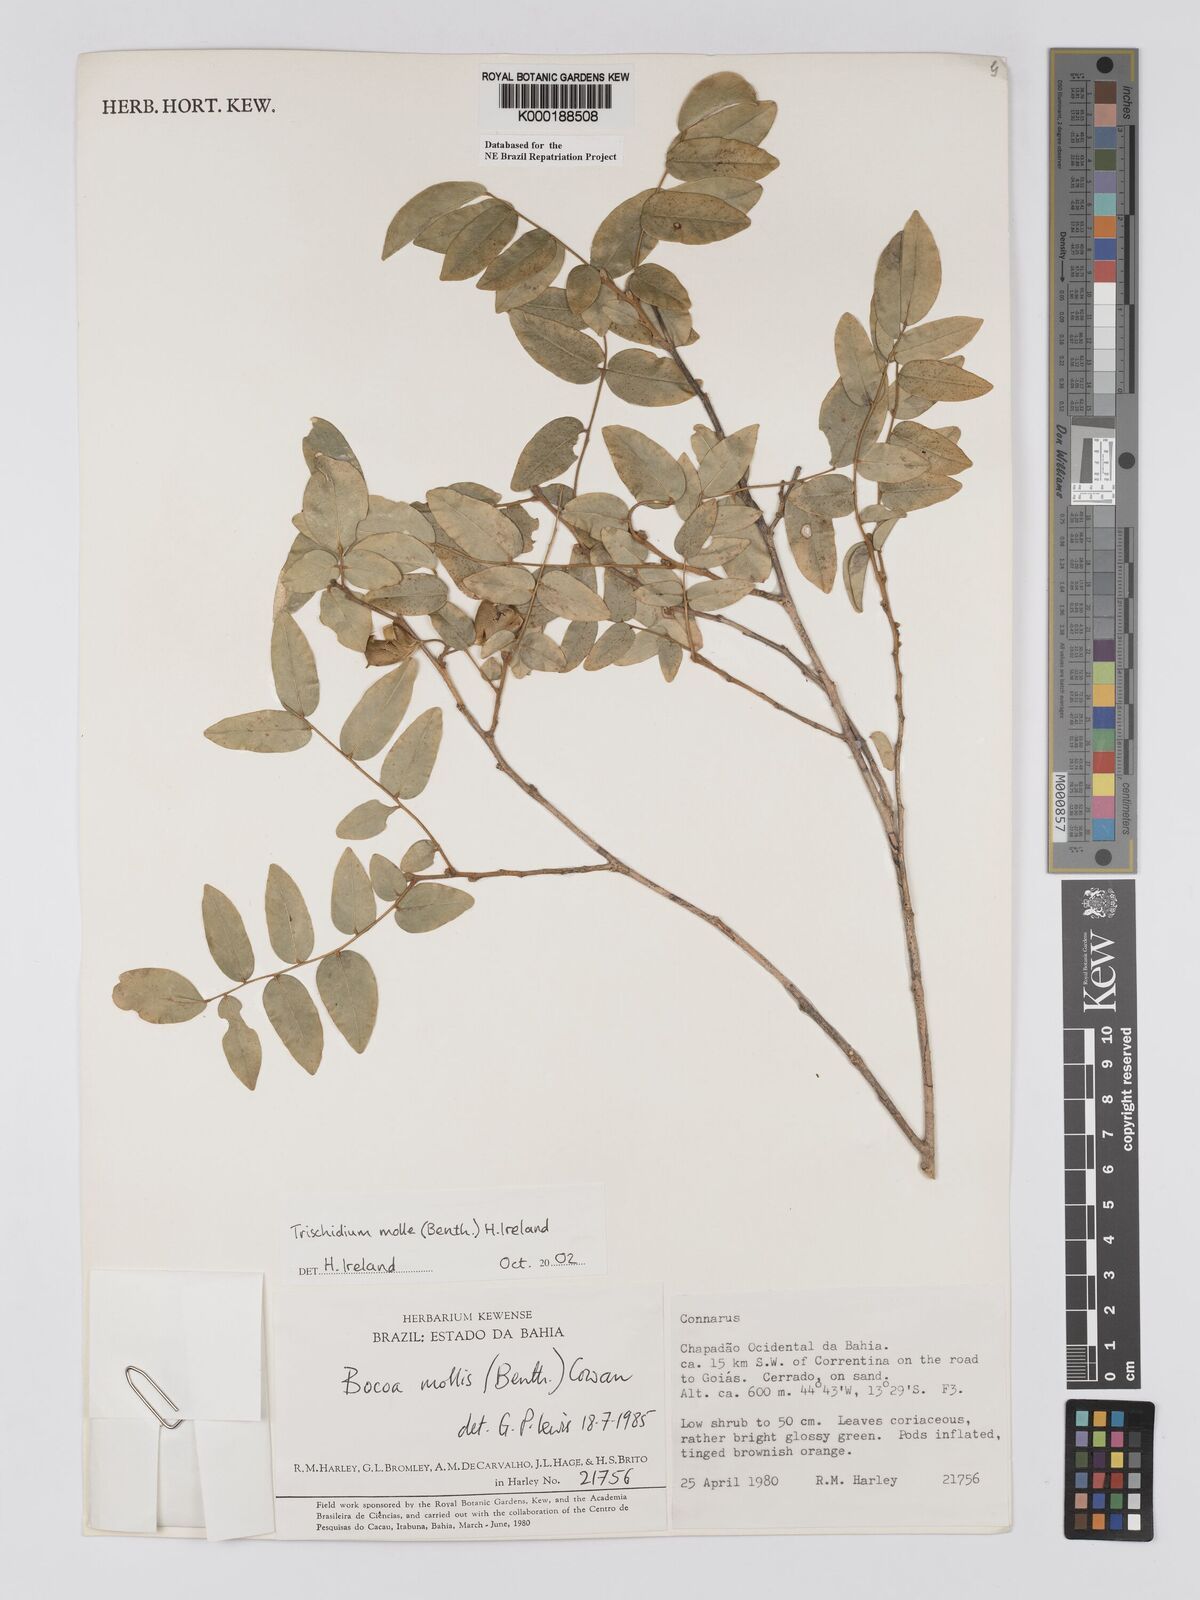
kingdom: Plantae
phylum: Tracheophyta
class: Magnoliopsida
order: Fabales
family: Fabaceae
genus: Trischidium
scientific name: Trischidium
